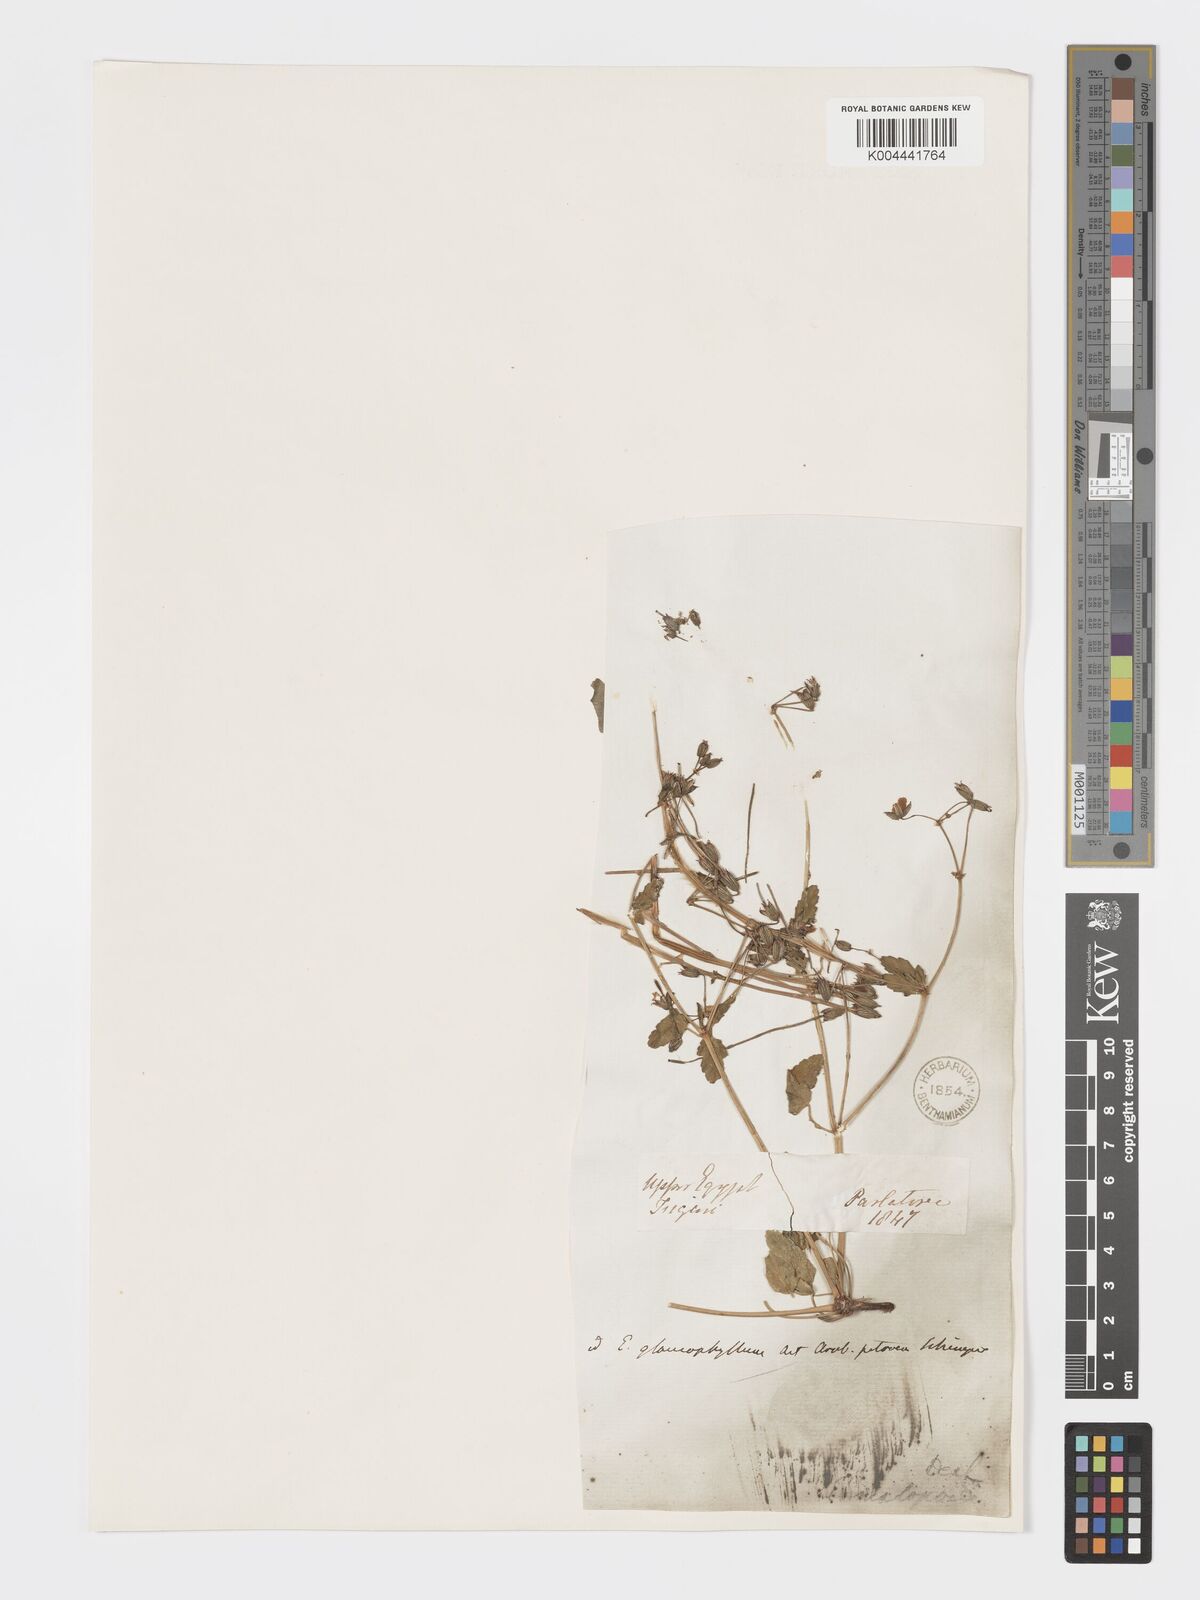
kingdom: Plantae
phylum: Tracheophyta
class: Magnoliopsida
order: Geraniales
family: Geraniaceae
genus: Erodium
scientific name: Erodium glaucophyllum
